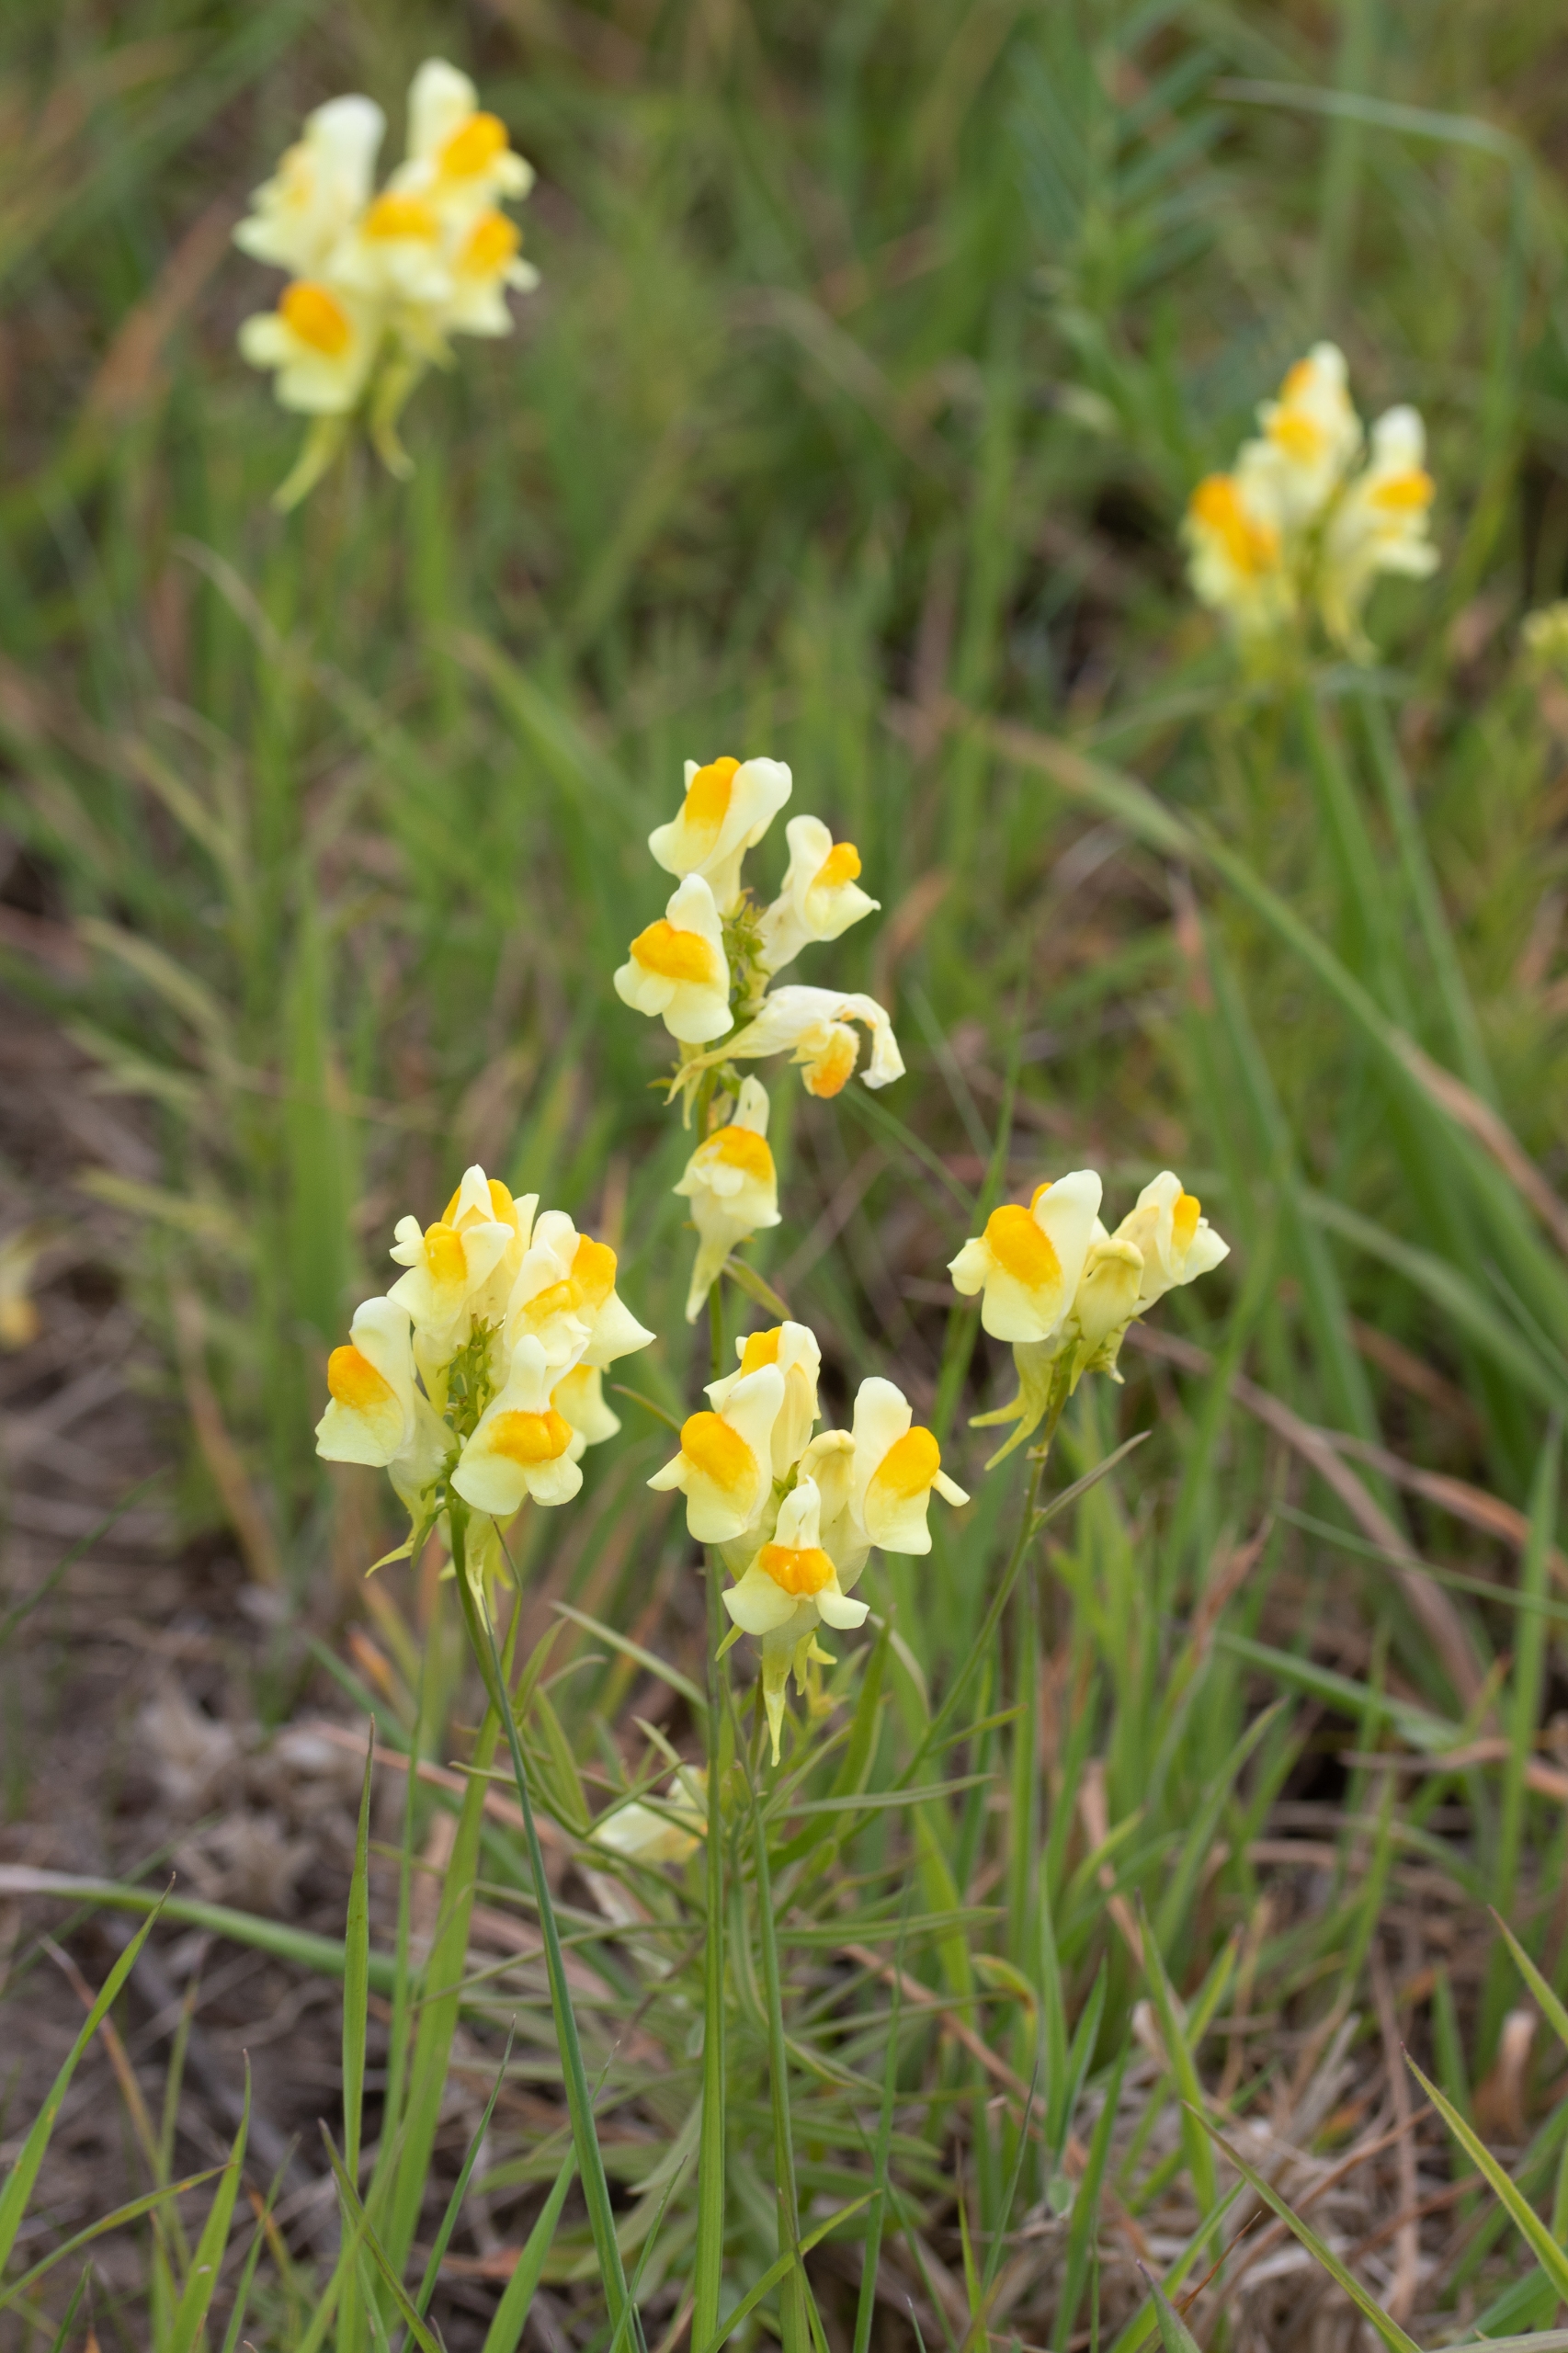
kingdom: Plantae
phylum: Tracheophyta
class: Magnoliopsida
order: Lamiales
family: Plantaginaceae
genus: Linaria
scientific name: Linaria vulgaris
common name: Almindelig torskemund
